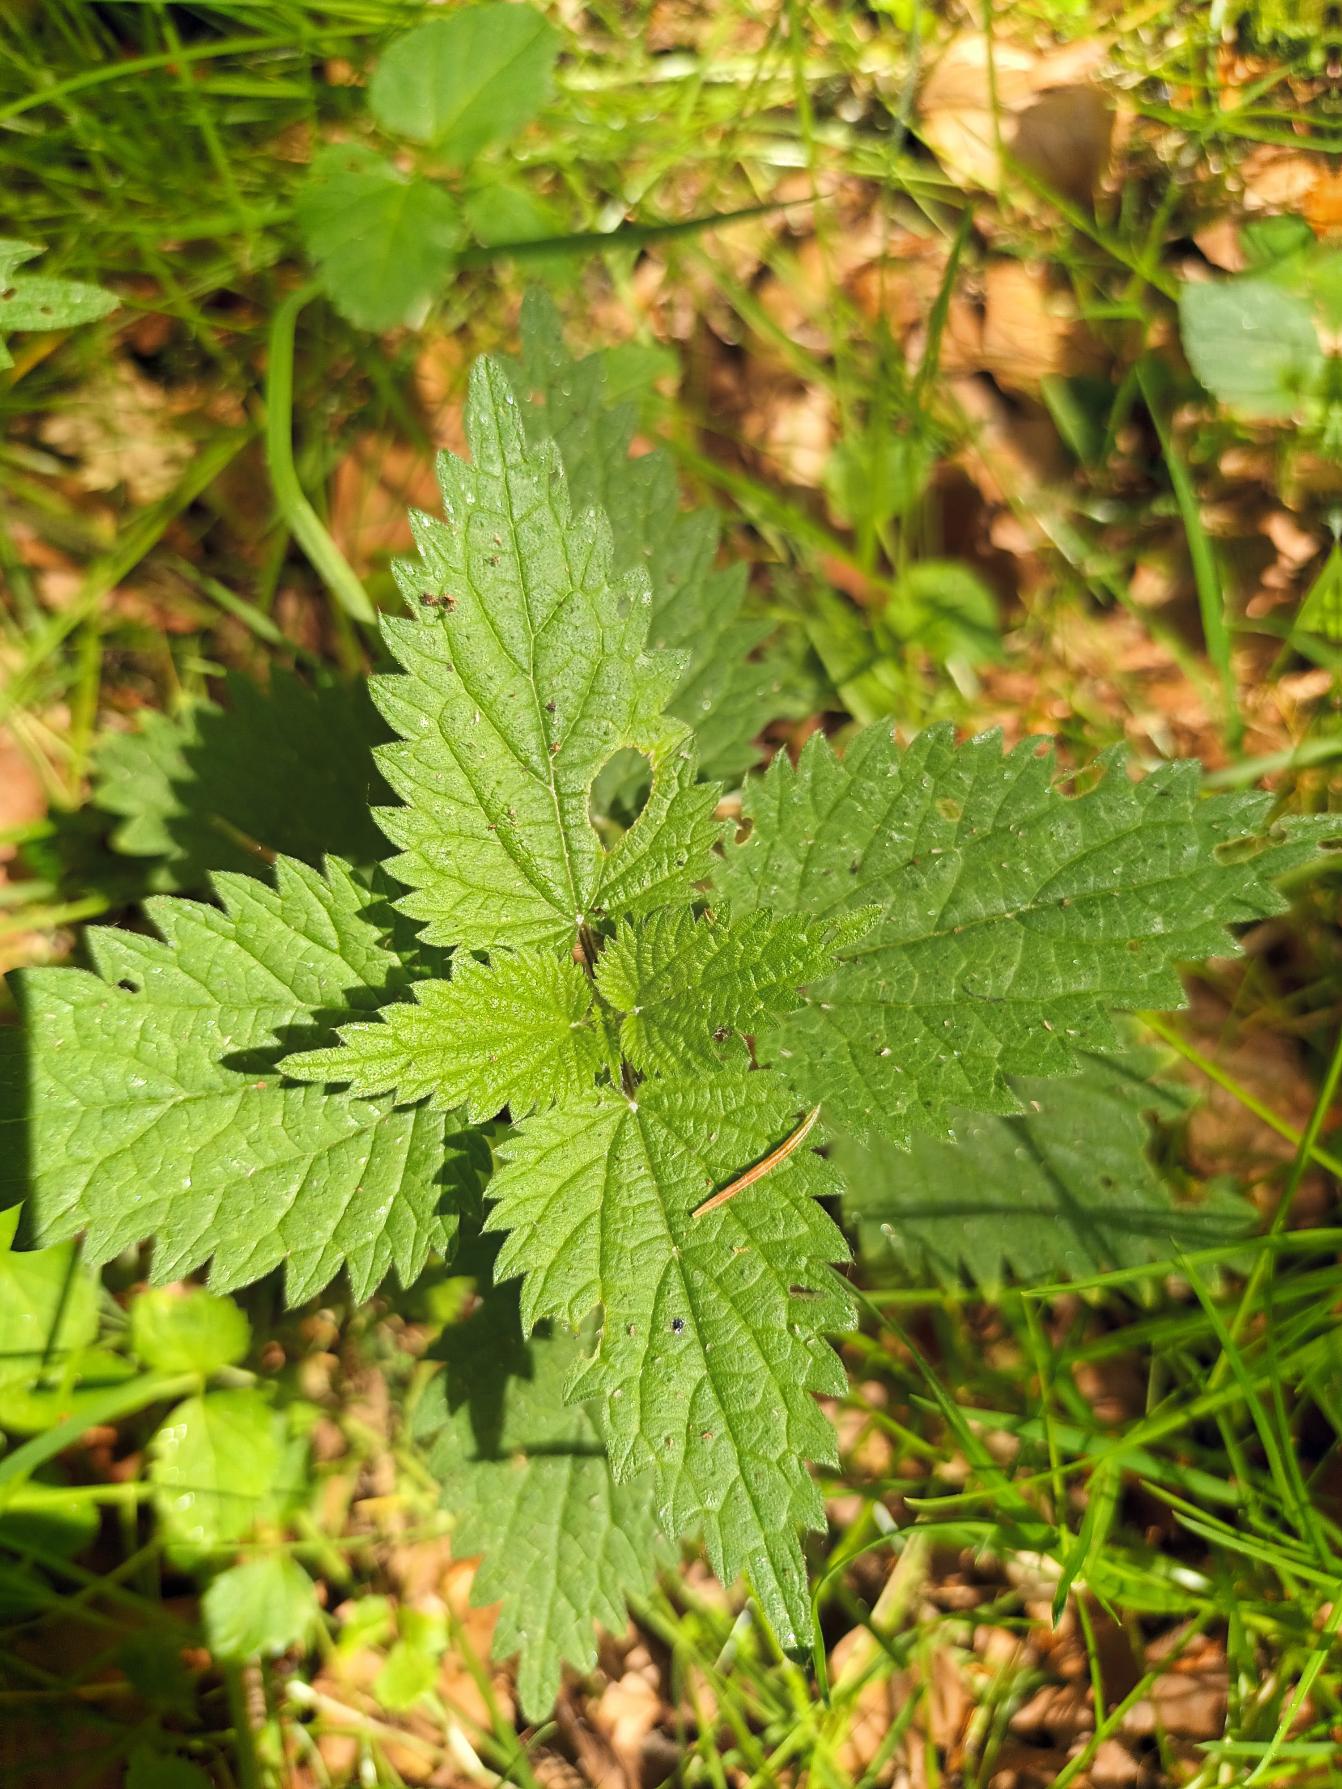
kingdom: Plantae
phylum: Tracheophyta
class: Magnoliopsida
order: Rosales
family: Urticaceae
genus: Urtica
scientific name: Urtica dioica
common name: Stor nælde
